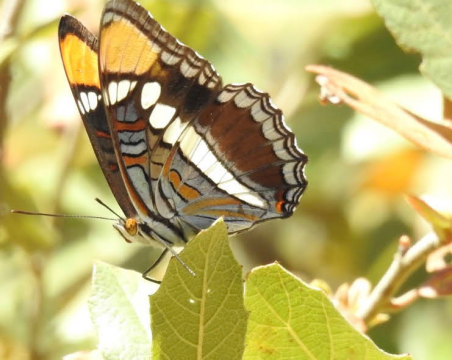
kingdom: Animalia
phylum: Arthropoda
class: Insecta
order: Lepidoptera
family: Nymphalidae
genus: Limenitis
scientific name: Limenitis bredowii
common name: Arizona Sister
